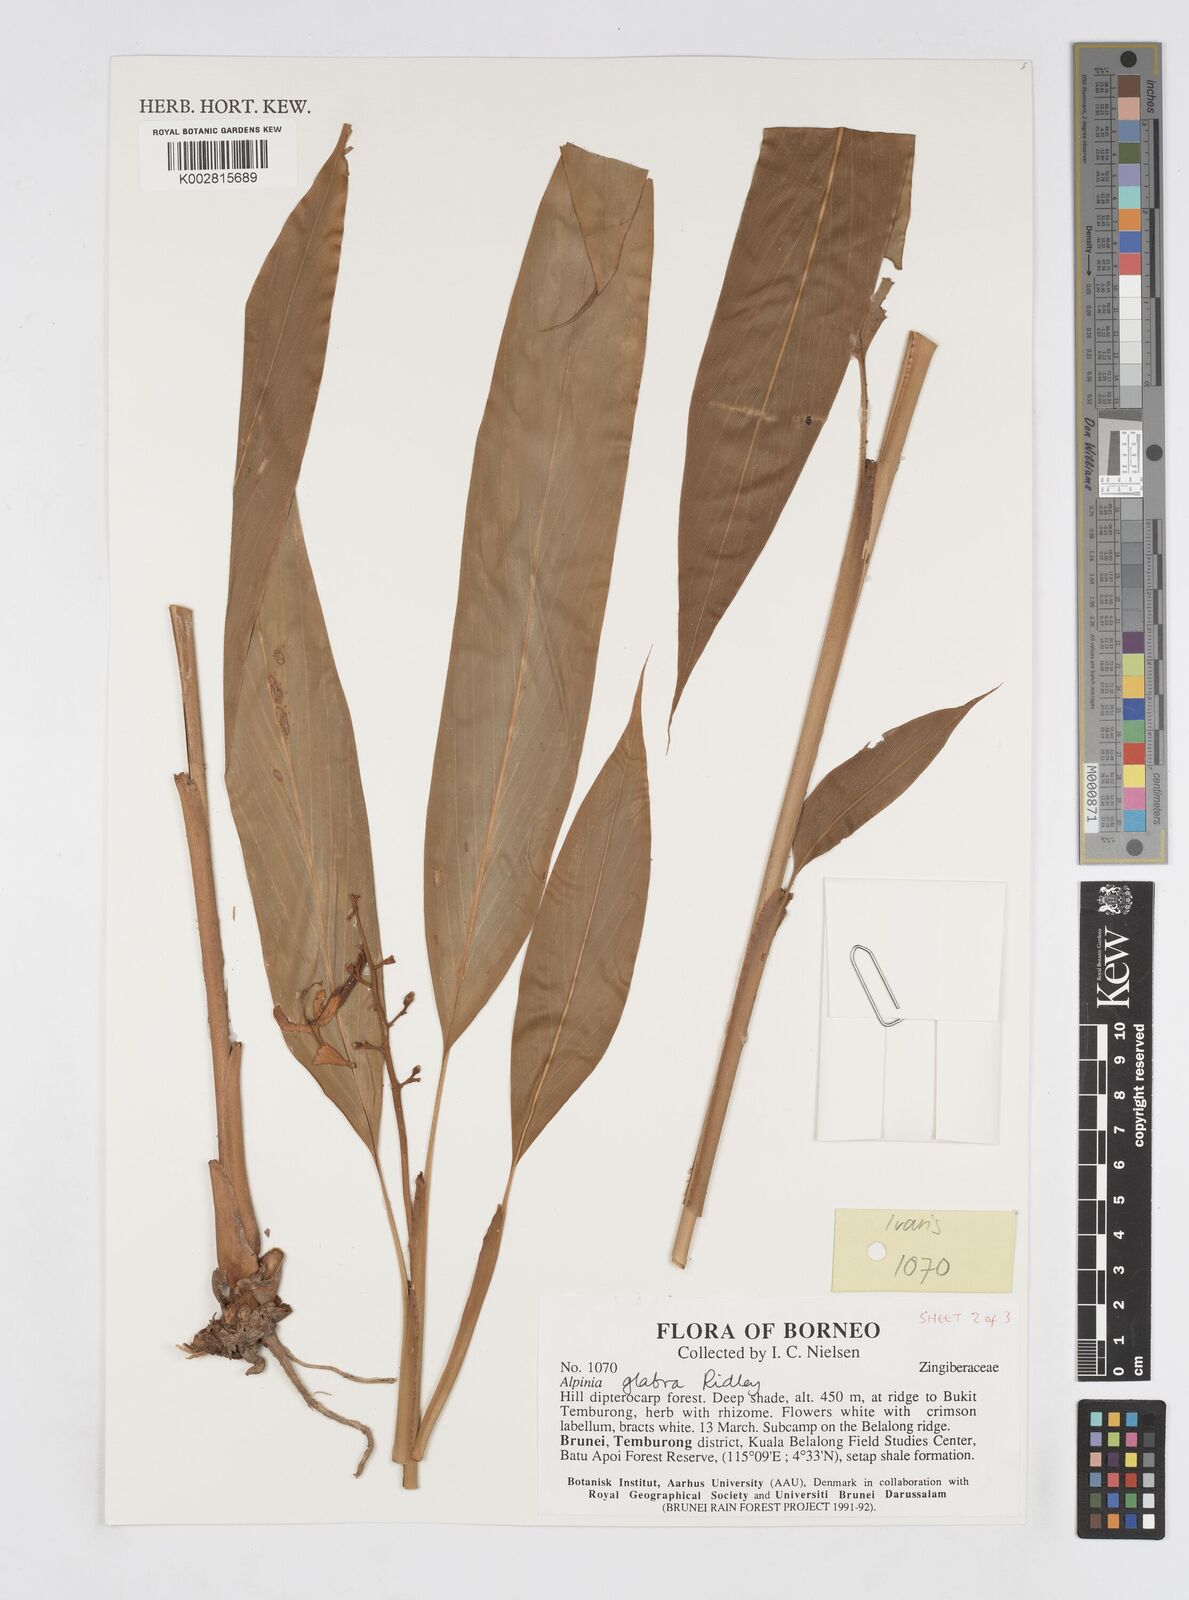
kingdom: Plantae
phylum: Tracheophyta
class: Liliopsida
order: Zingiberales
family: Zingiberaceae
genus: Alpinia
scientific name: Alpinia glabra
